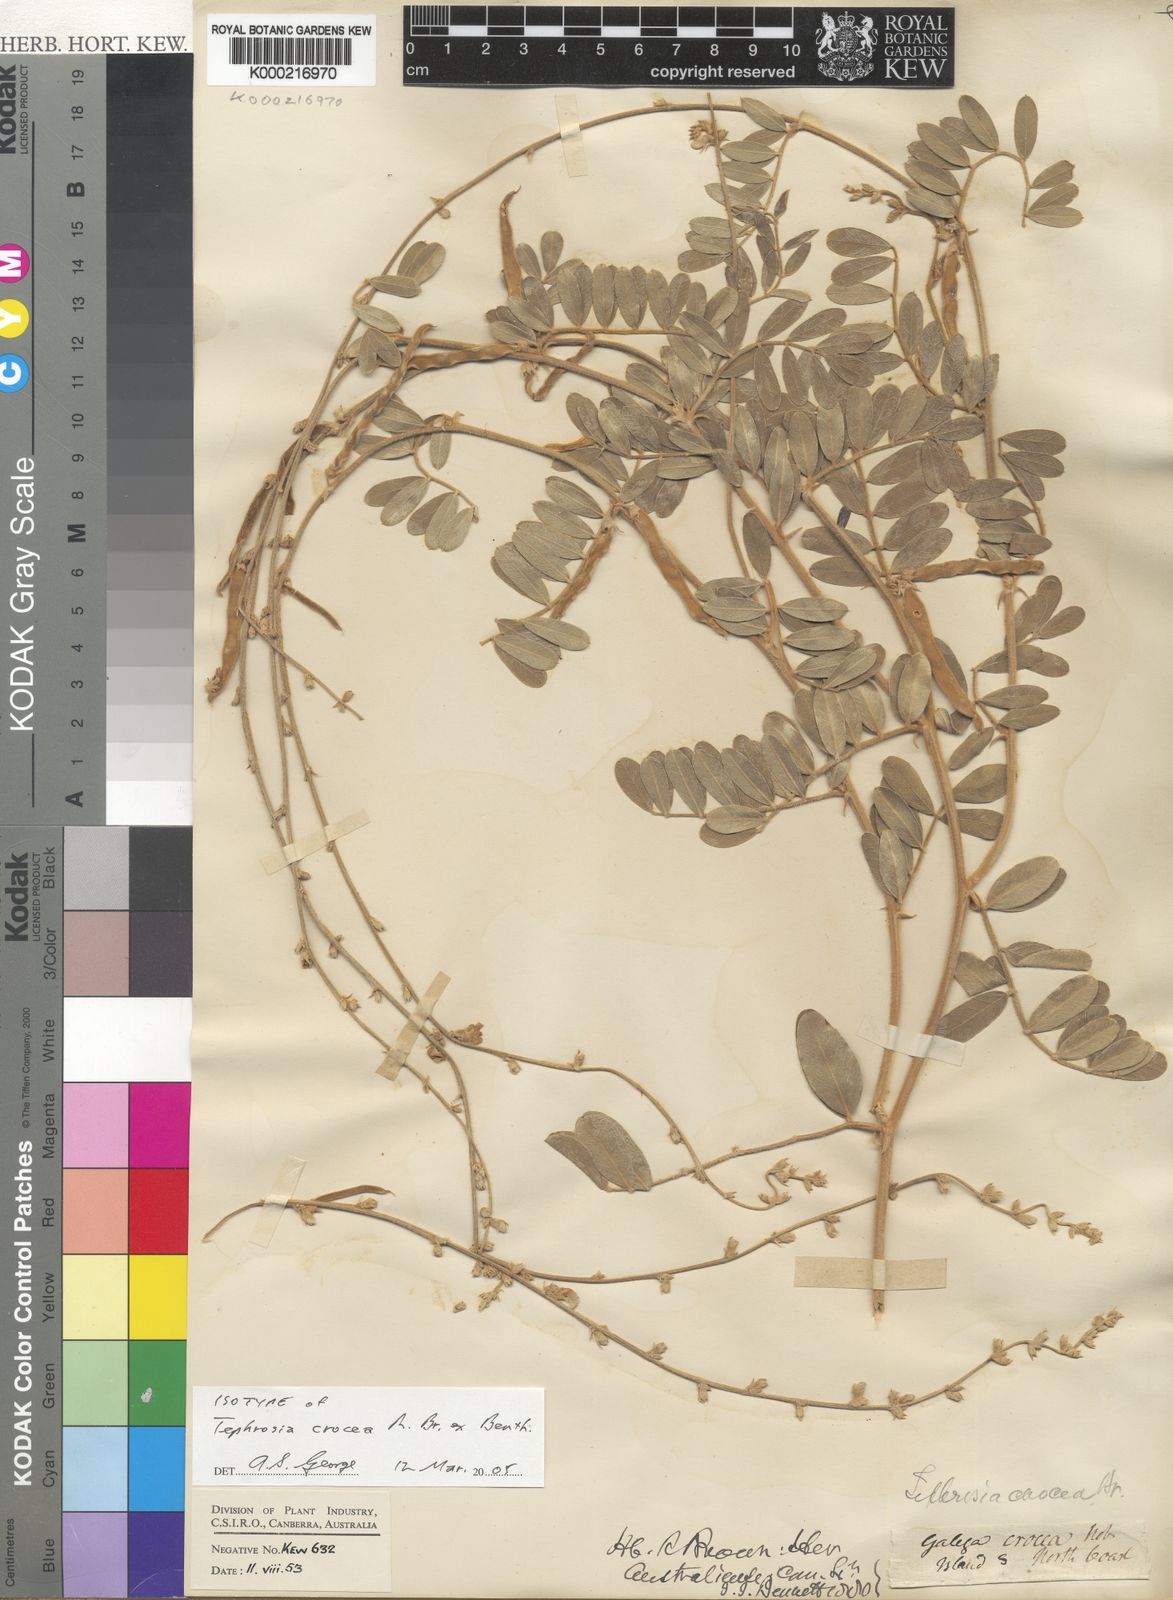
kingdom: Plantae
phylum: Tracheophyta
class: Magnoliopsida
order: Fabales
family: Fabaceae
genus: Tephrosia
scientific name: Tephrosia crocea
